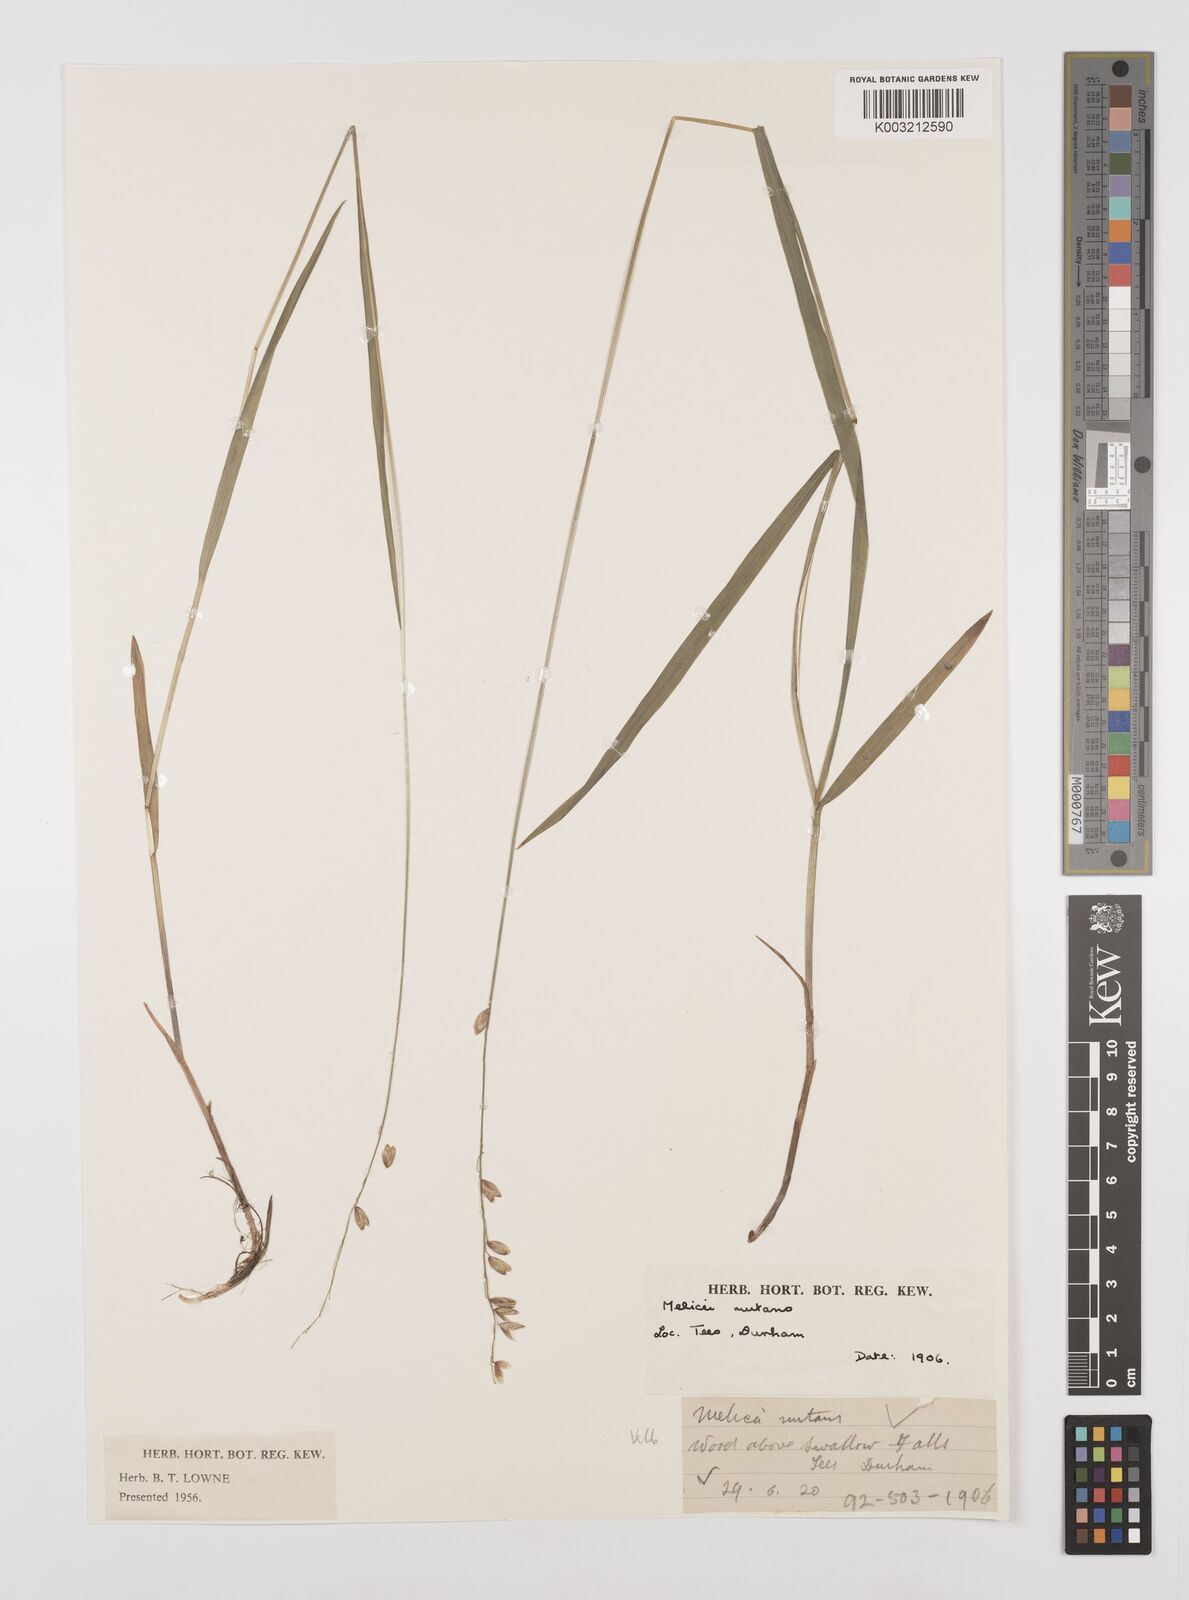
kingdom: Plantae
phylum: Tracheophyta
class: Liliopsida
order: Poales
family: Poaceae
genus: Melica
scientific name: Melica
